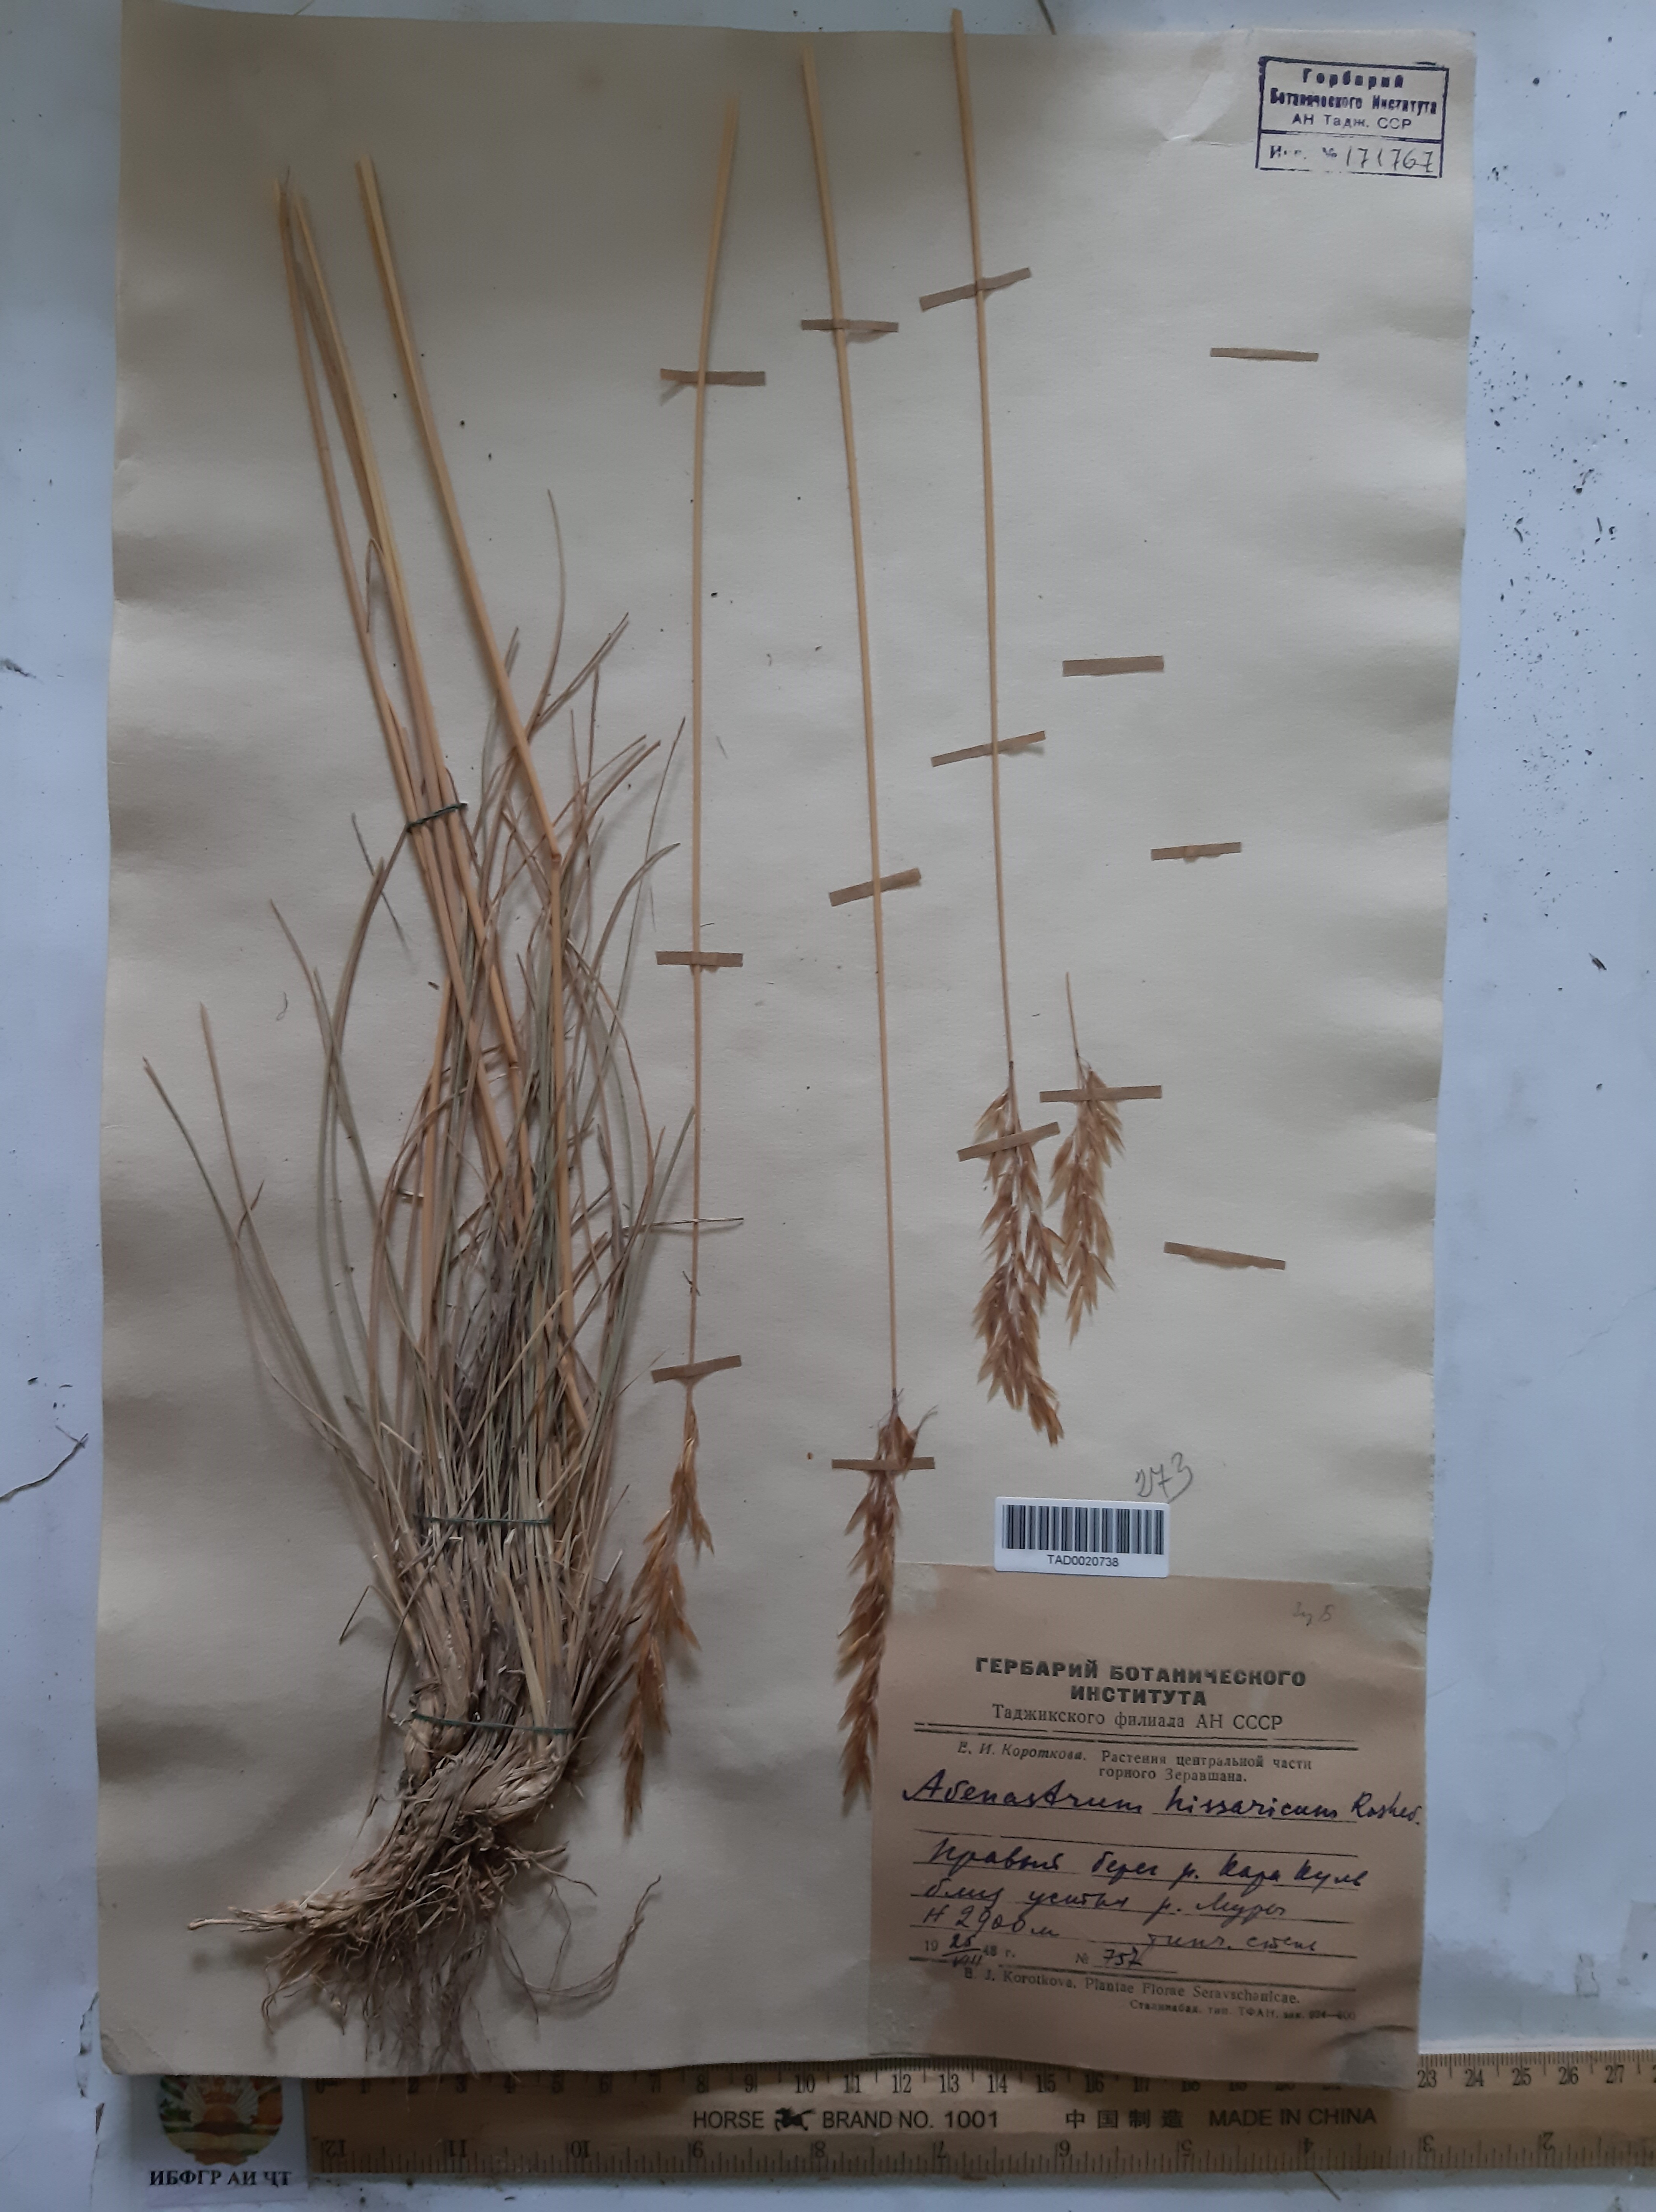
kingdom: Plantae
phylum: Tracheophyta
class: Liliopsida
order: Poales
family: Poaceae
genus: Helictotrichon
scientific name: Helictotrichon hissaricum
